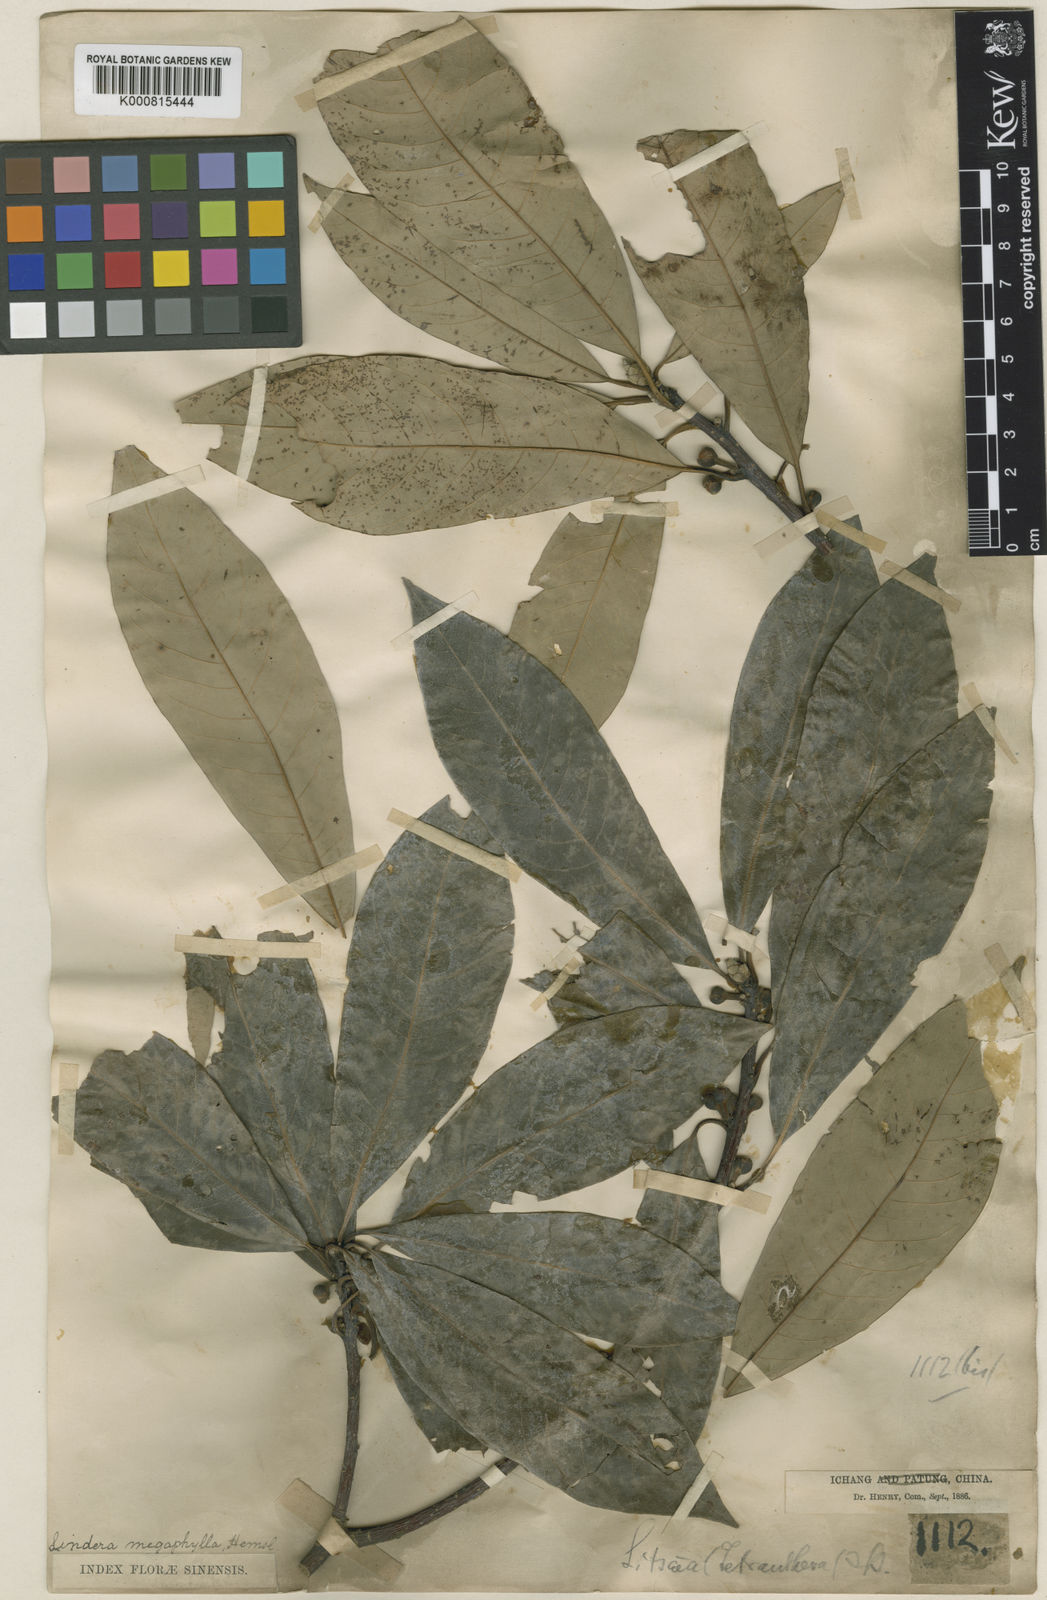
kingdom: Plantae
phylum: Tracheophyta
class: Magnoliopsida
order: Laurales
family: Lauraceae
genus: Lindera
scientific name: Lindera megaphylla
